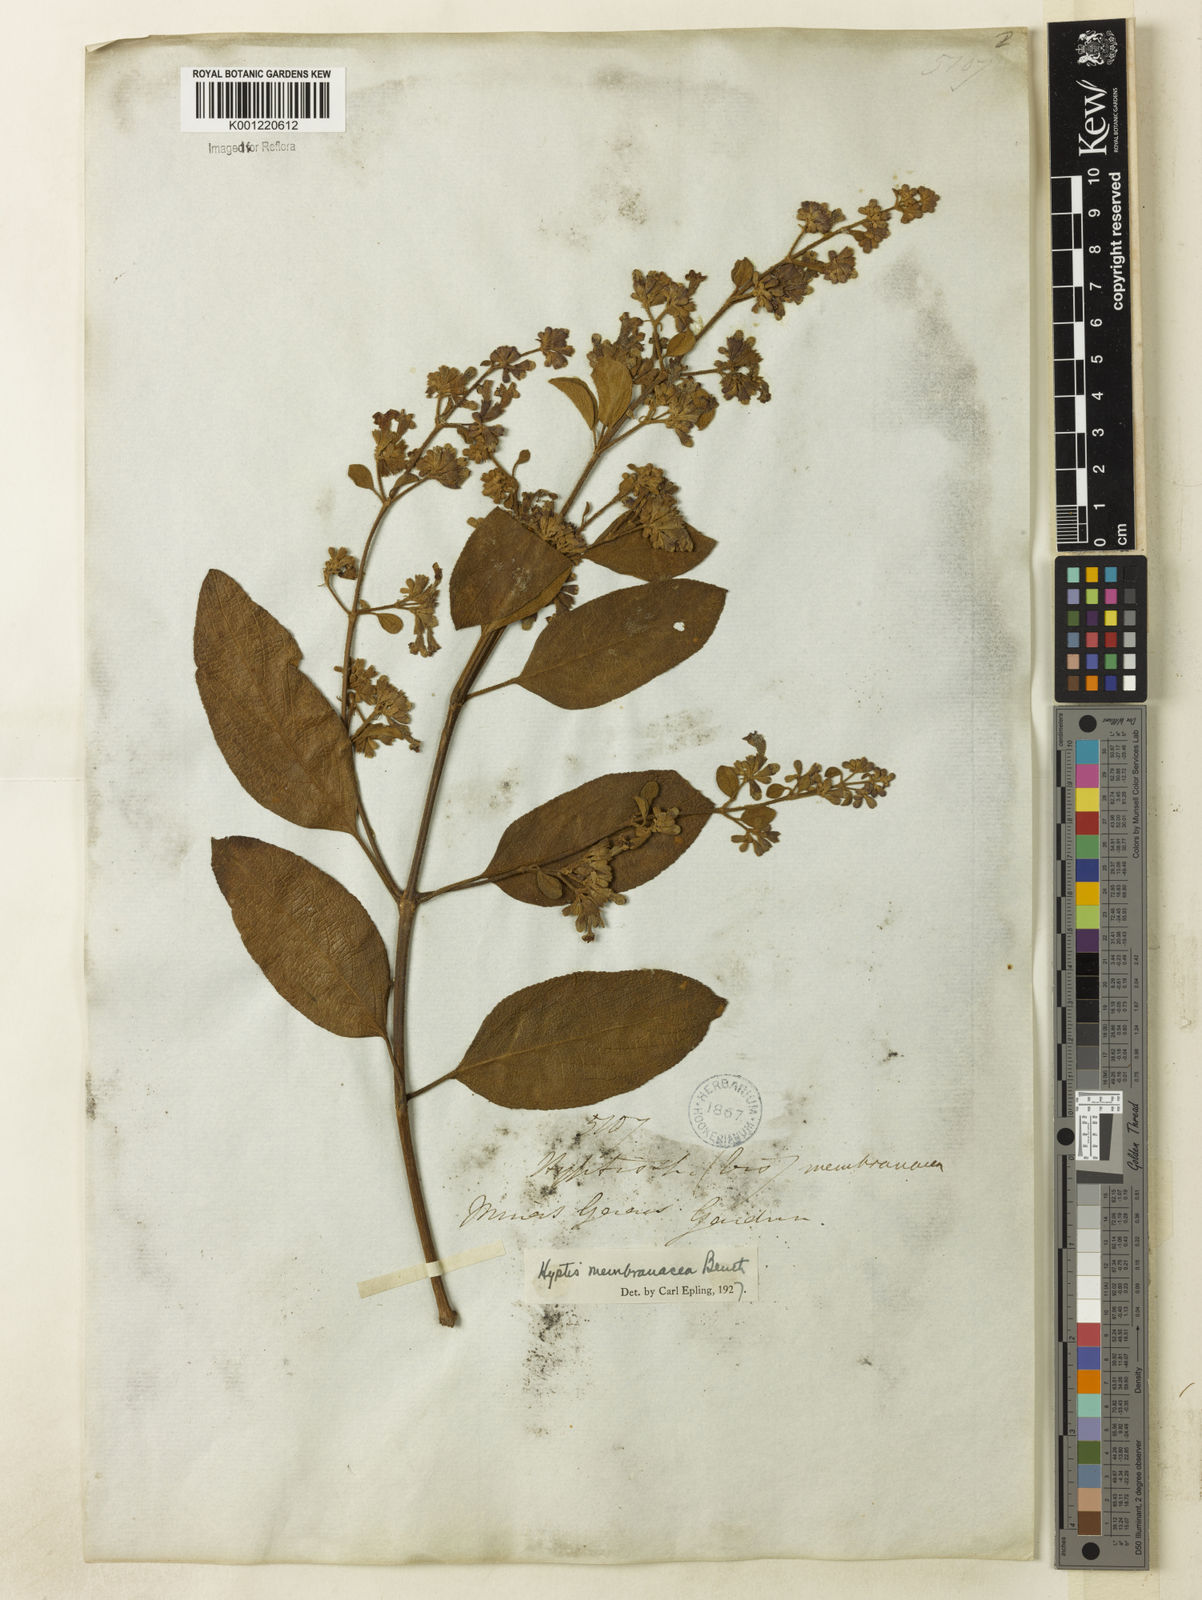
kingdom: Plantae
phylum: Tracheophyta
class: Magnoliopsida
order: Lamiales
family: Lamiaceae
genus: Hyptidendron
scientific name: Hyptidendron asperrimum
